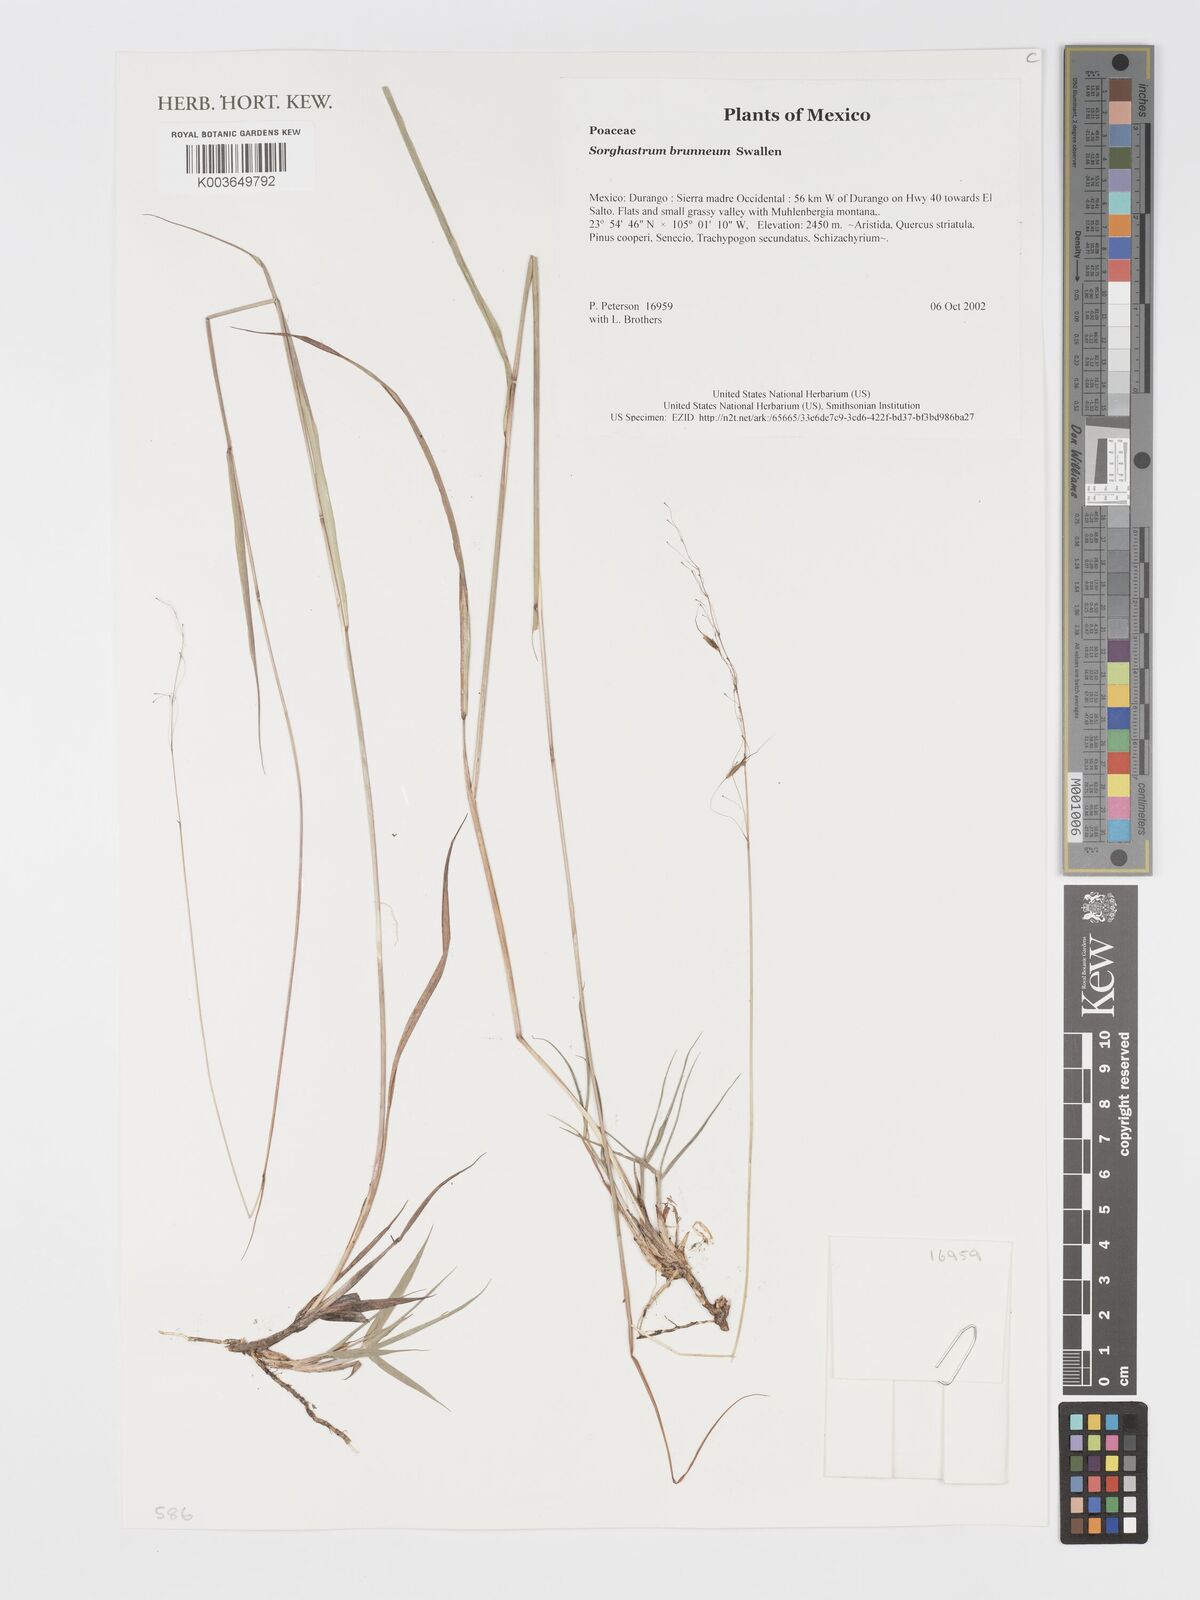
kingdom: Plantae
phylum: Tracheophyta
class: Liliopsida
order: Poales
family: Poaceae
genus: Sorghastrum
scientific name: Sorghastrum brunneum
